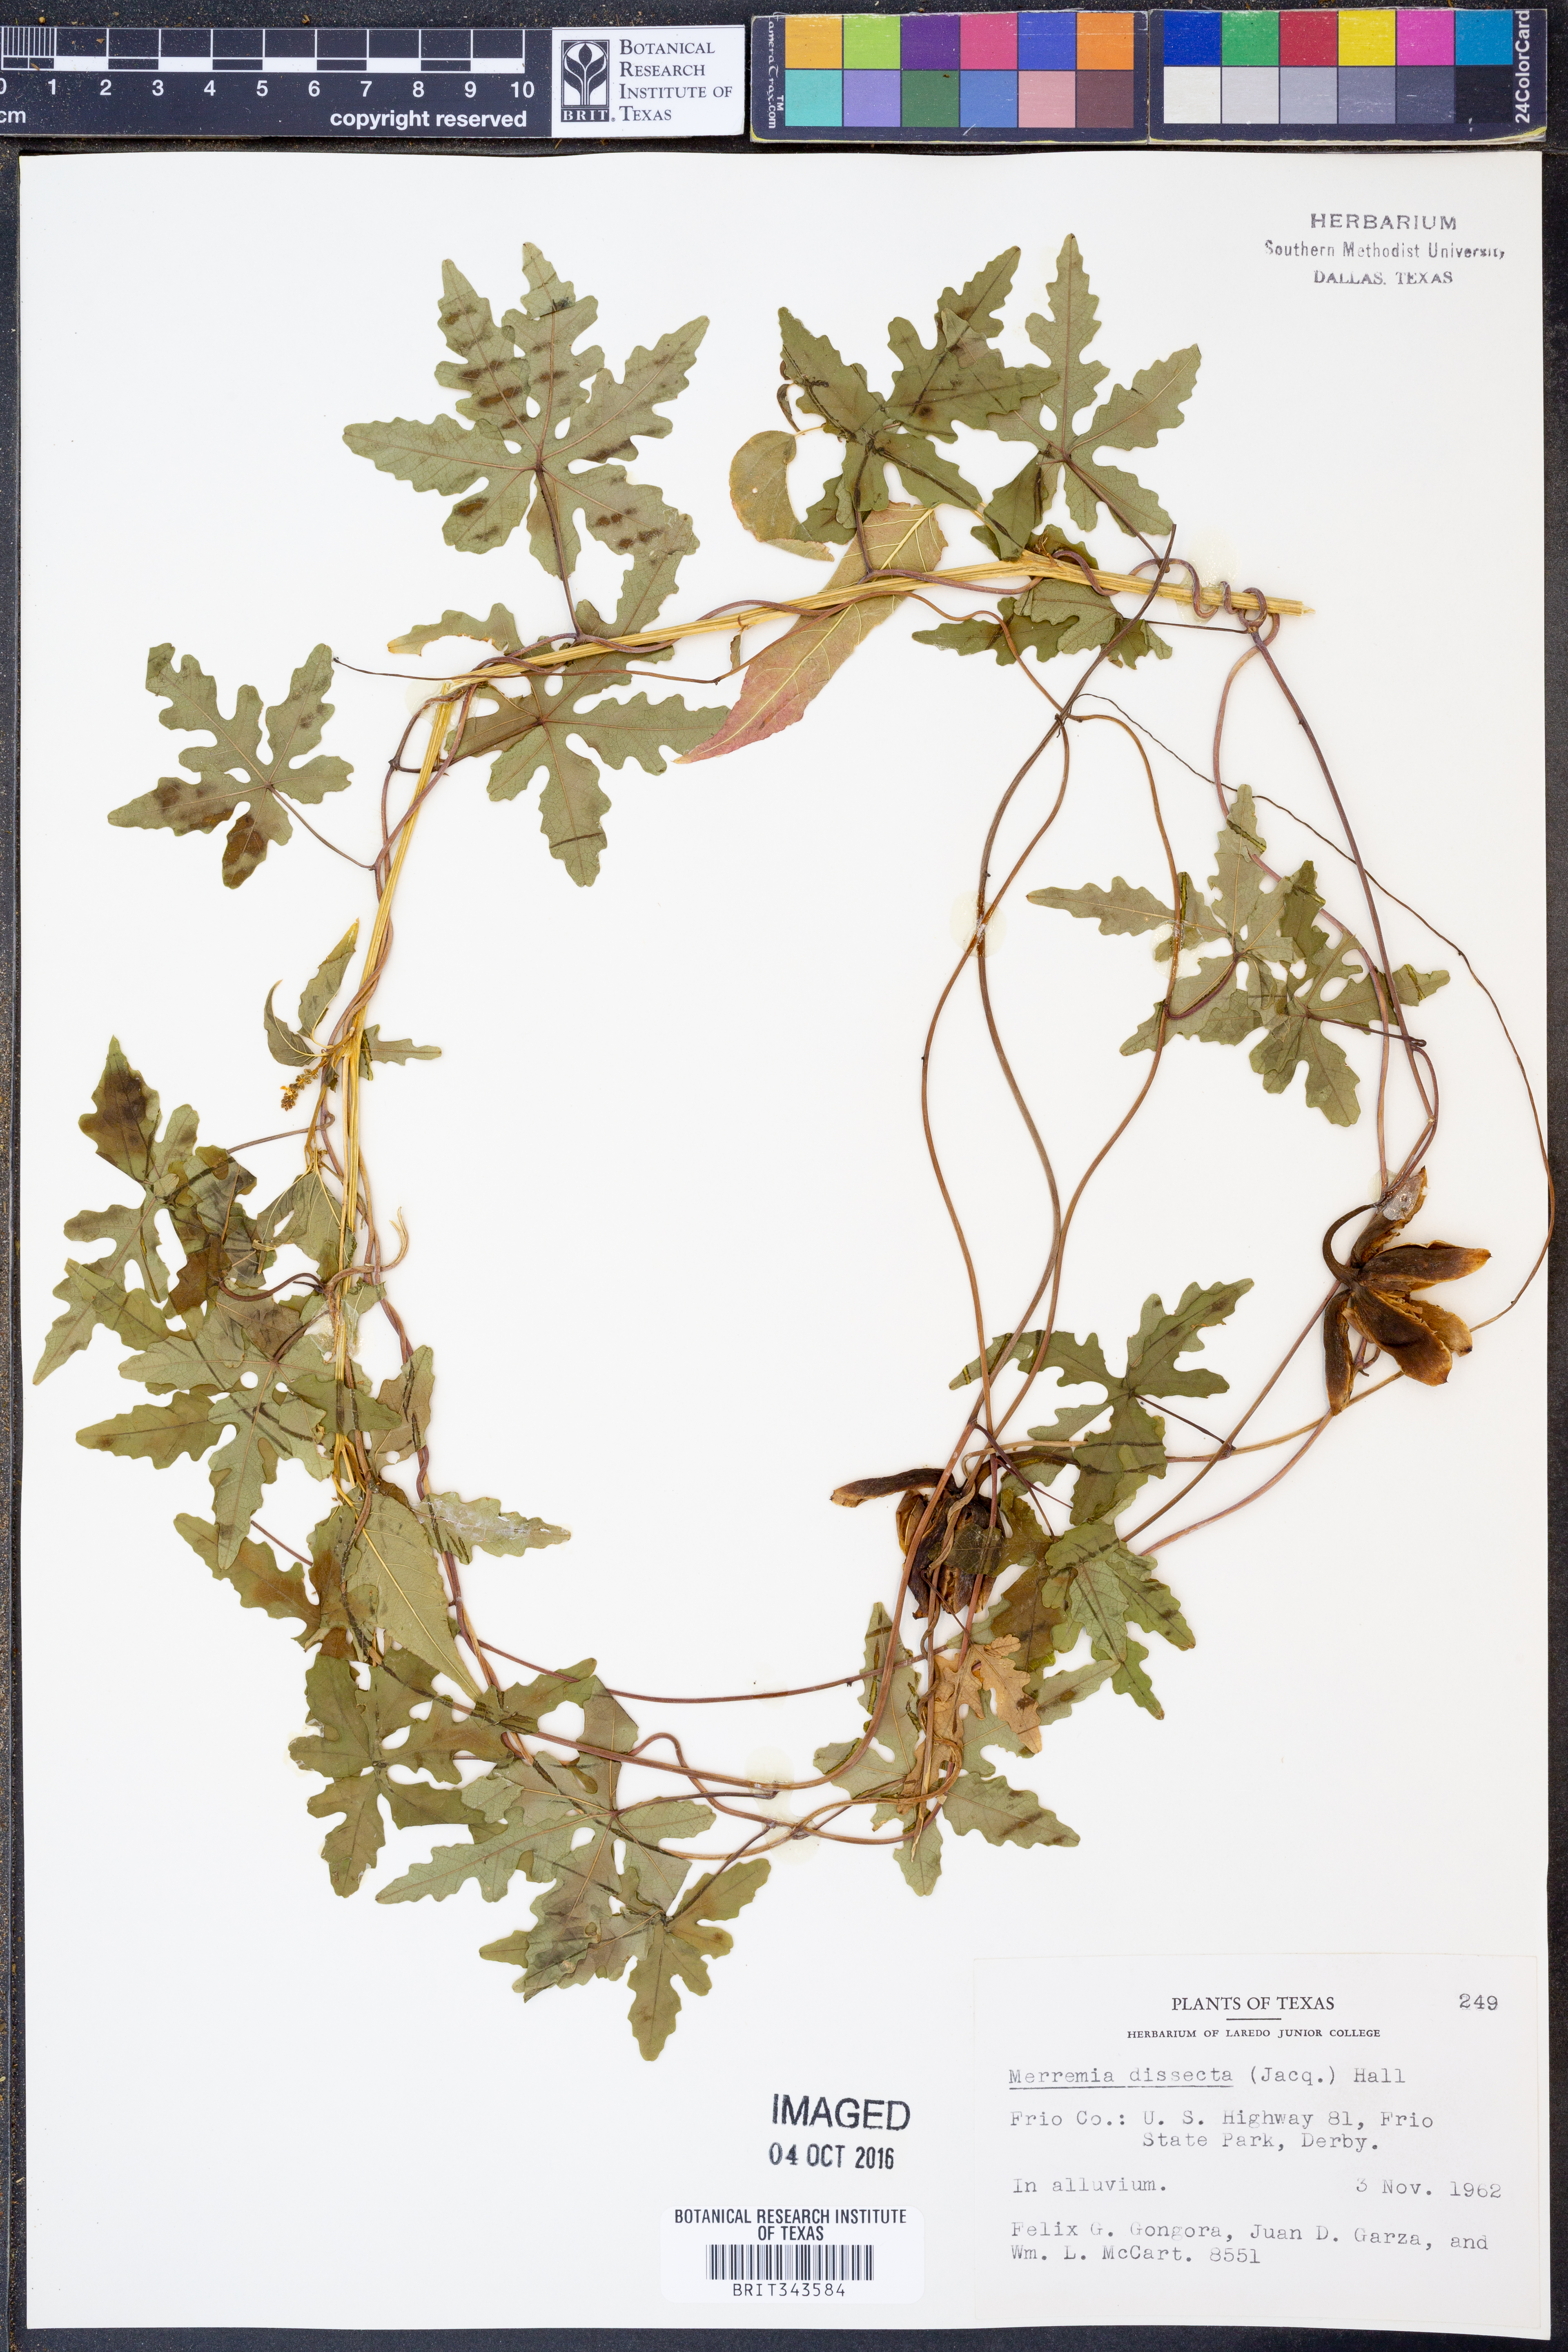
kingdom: Plantae
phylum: Tracheophyta
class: Magnoliopsida
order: Solanales
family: Convolvulaceae
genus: Distimake
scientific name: Distimake dissectus
